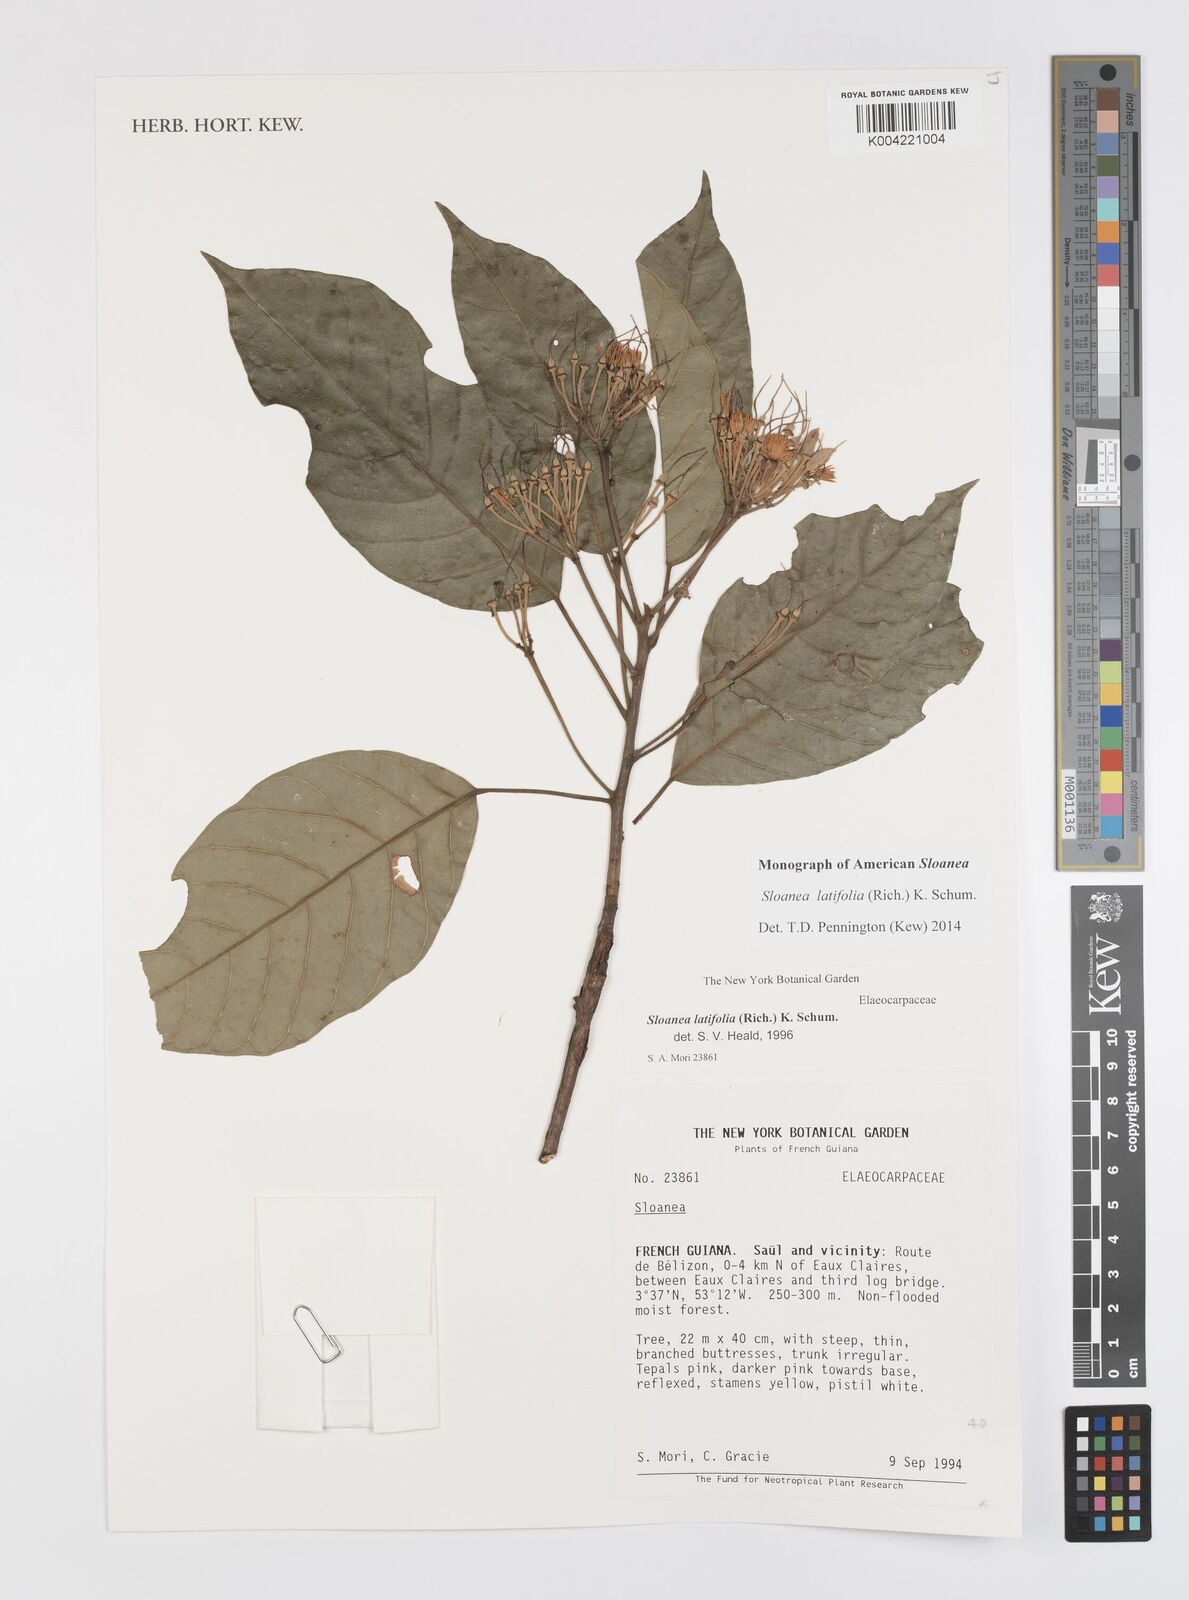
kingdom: Plantae
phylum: Tracheophyta
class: Magnoliopsida
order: Oxalidales
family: Elaeocarpaceae
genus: Sloanea
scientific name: Sloanea latifolia
